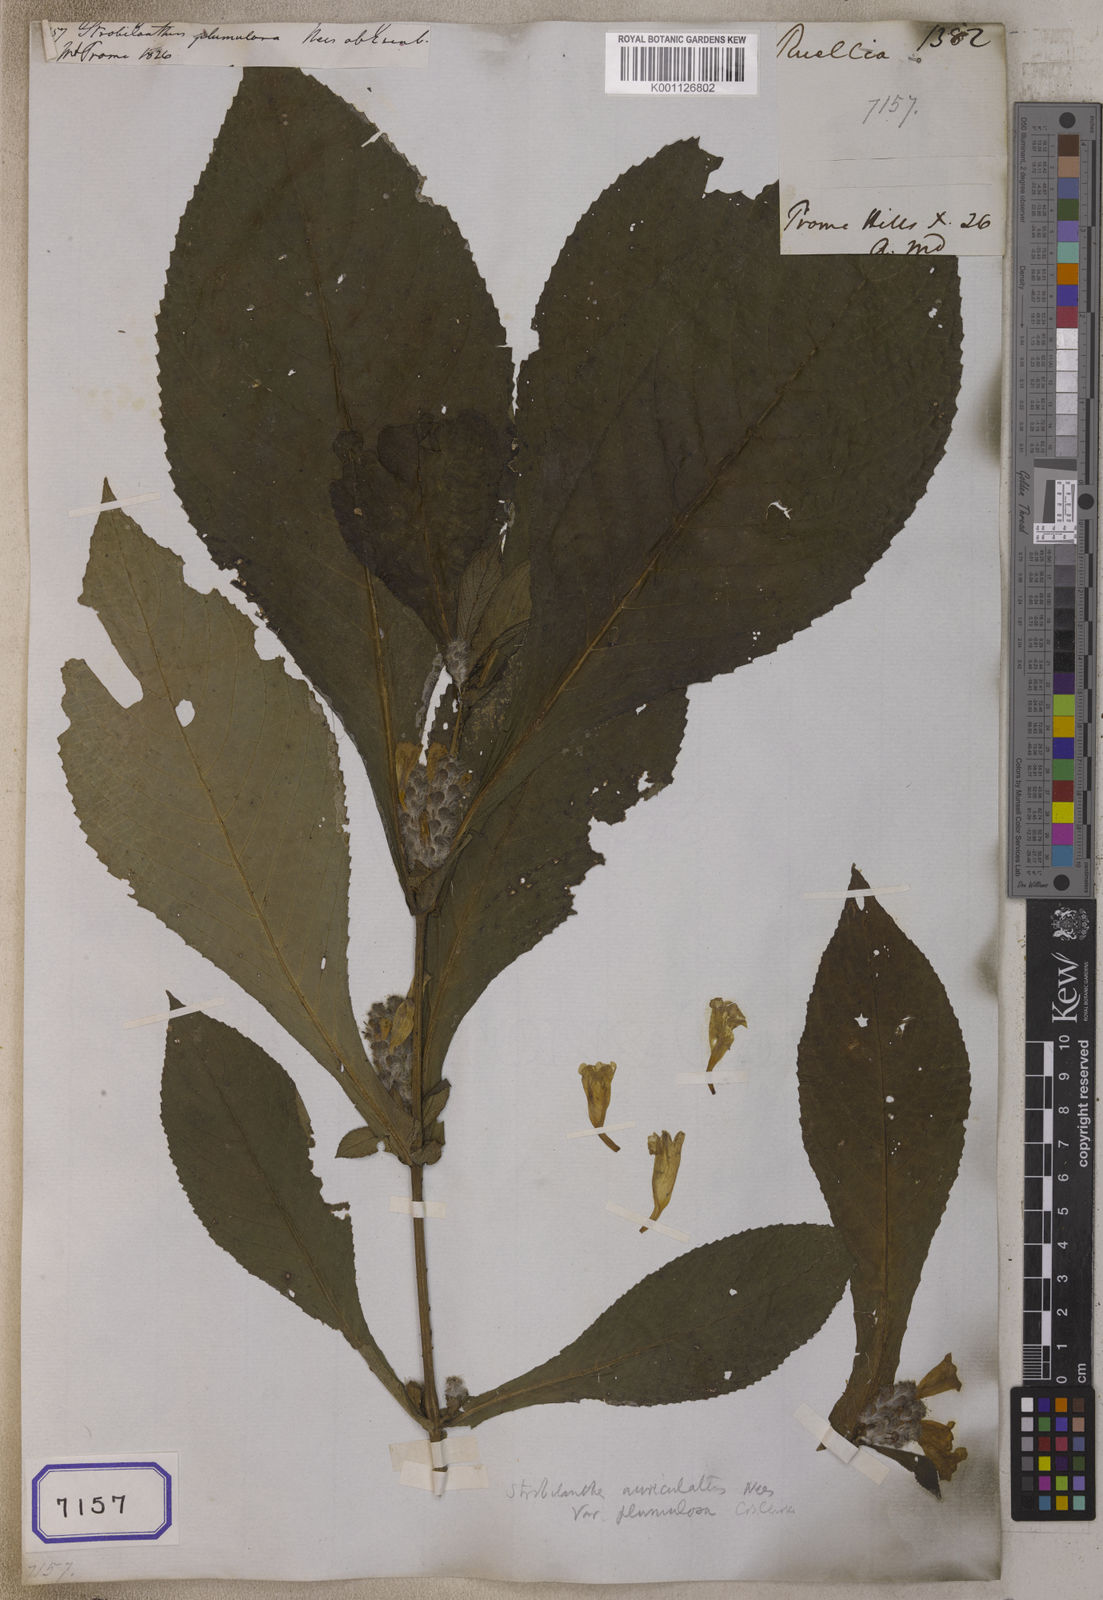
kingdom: Plantae
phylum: Tracheophyta
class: Magnoliopsida
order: Lamiales
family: Acanthaceae
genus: Strobilanthes
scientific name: Strobilanthes auriculata
